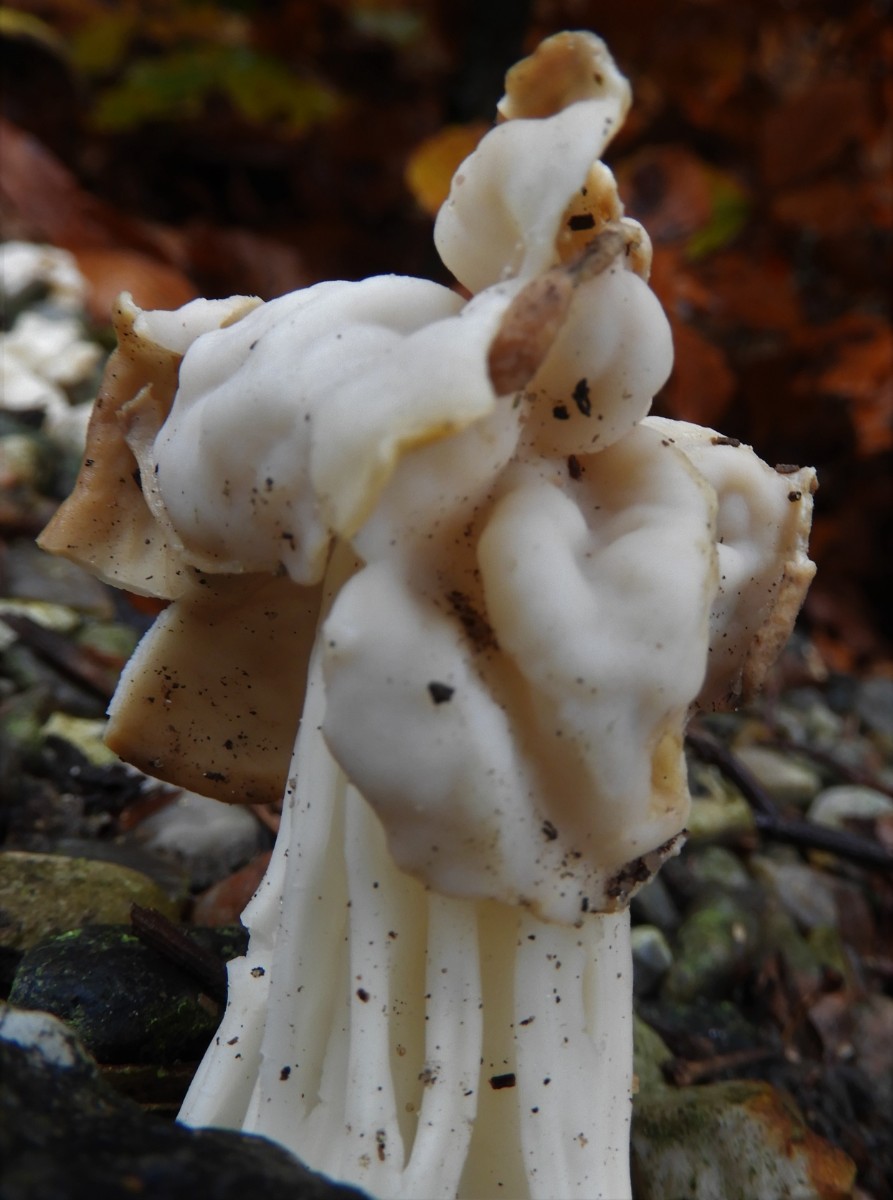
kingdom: Fungi
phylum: Ascomycota
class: Pezizomycetes
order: Pezizales
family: Helvellaceae
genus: Helvella
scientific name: Helvella crispa
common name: kruset foldhat
